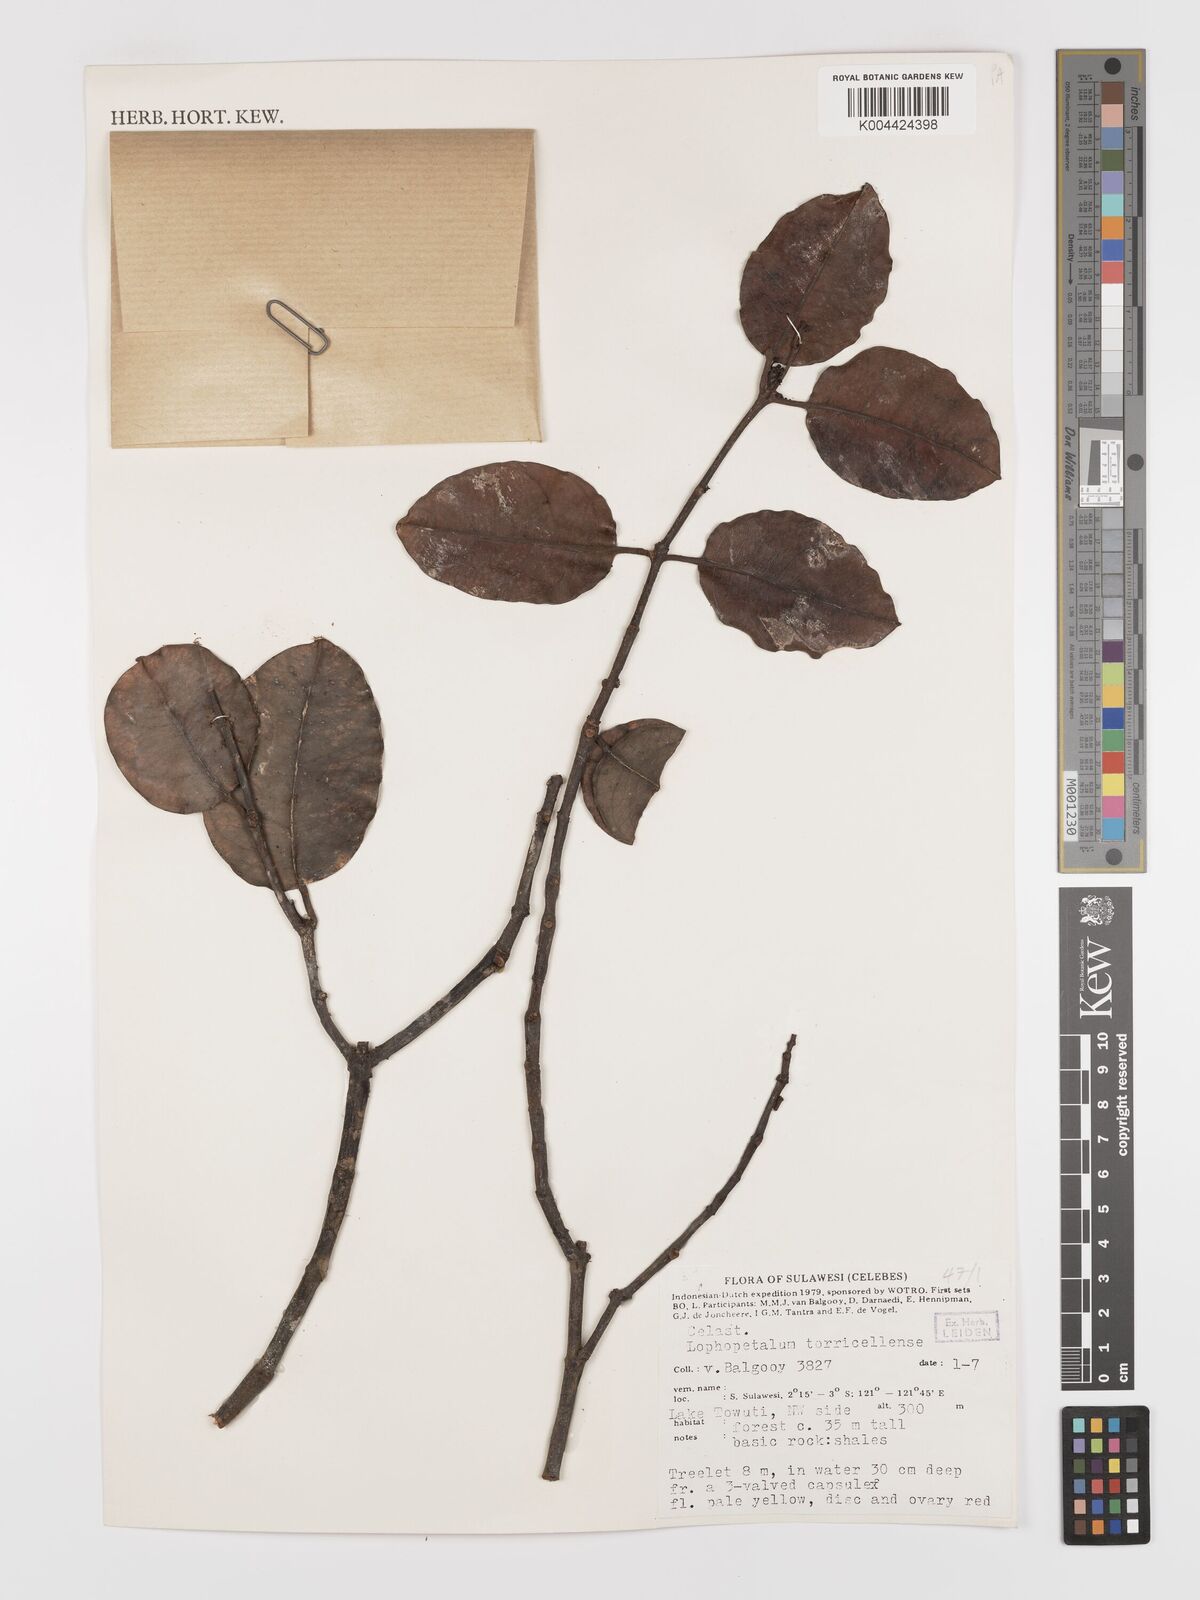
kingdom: Plantae
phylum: Tracheophyta
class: Magnoliopsida
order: Celastrales
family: Celastraceae
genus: Lophopetalum
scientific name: Lophopetalum torricellense
